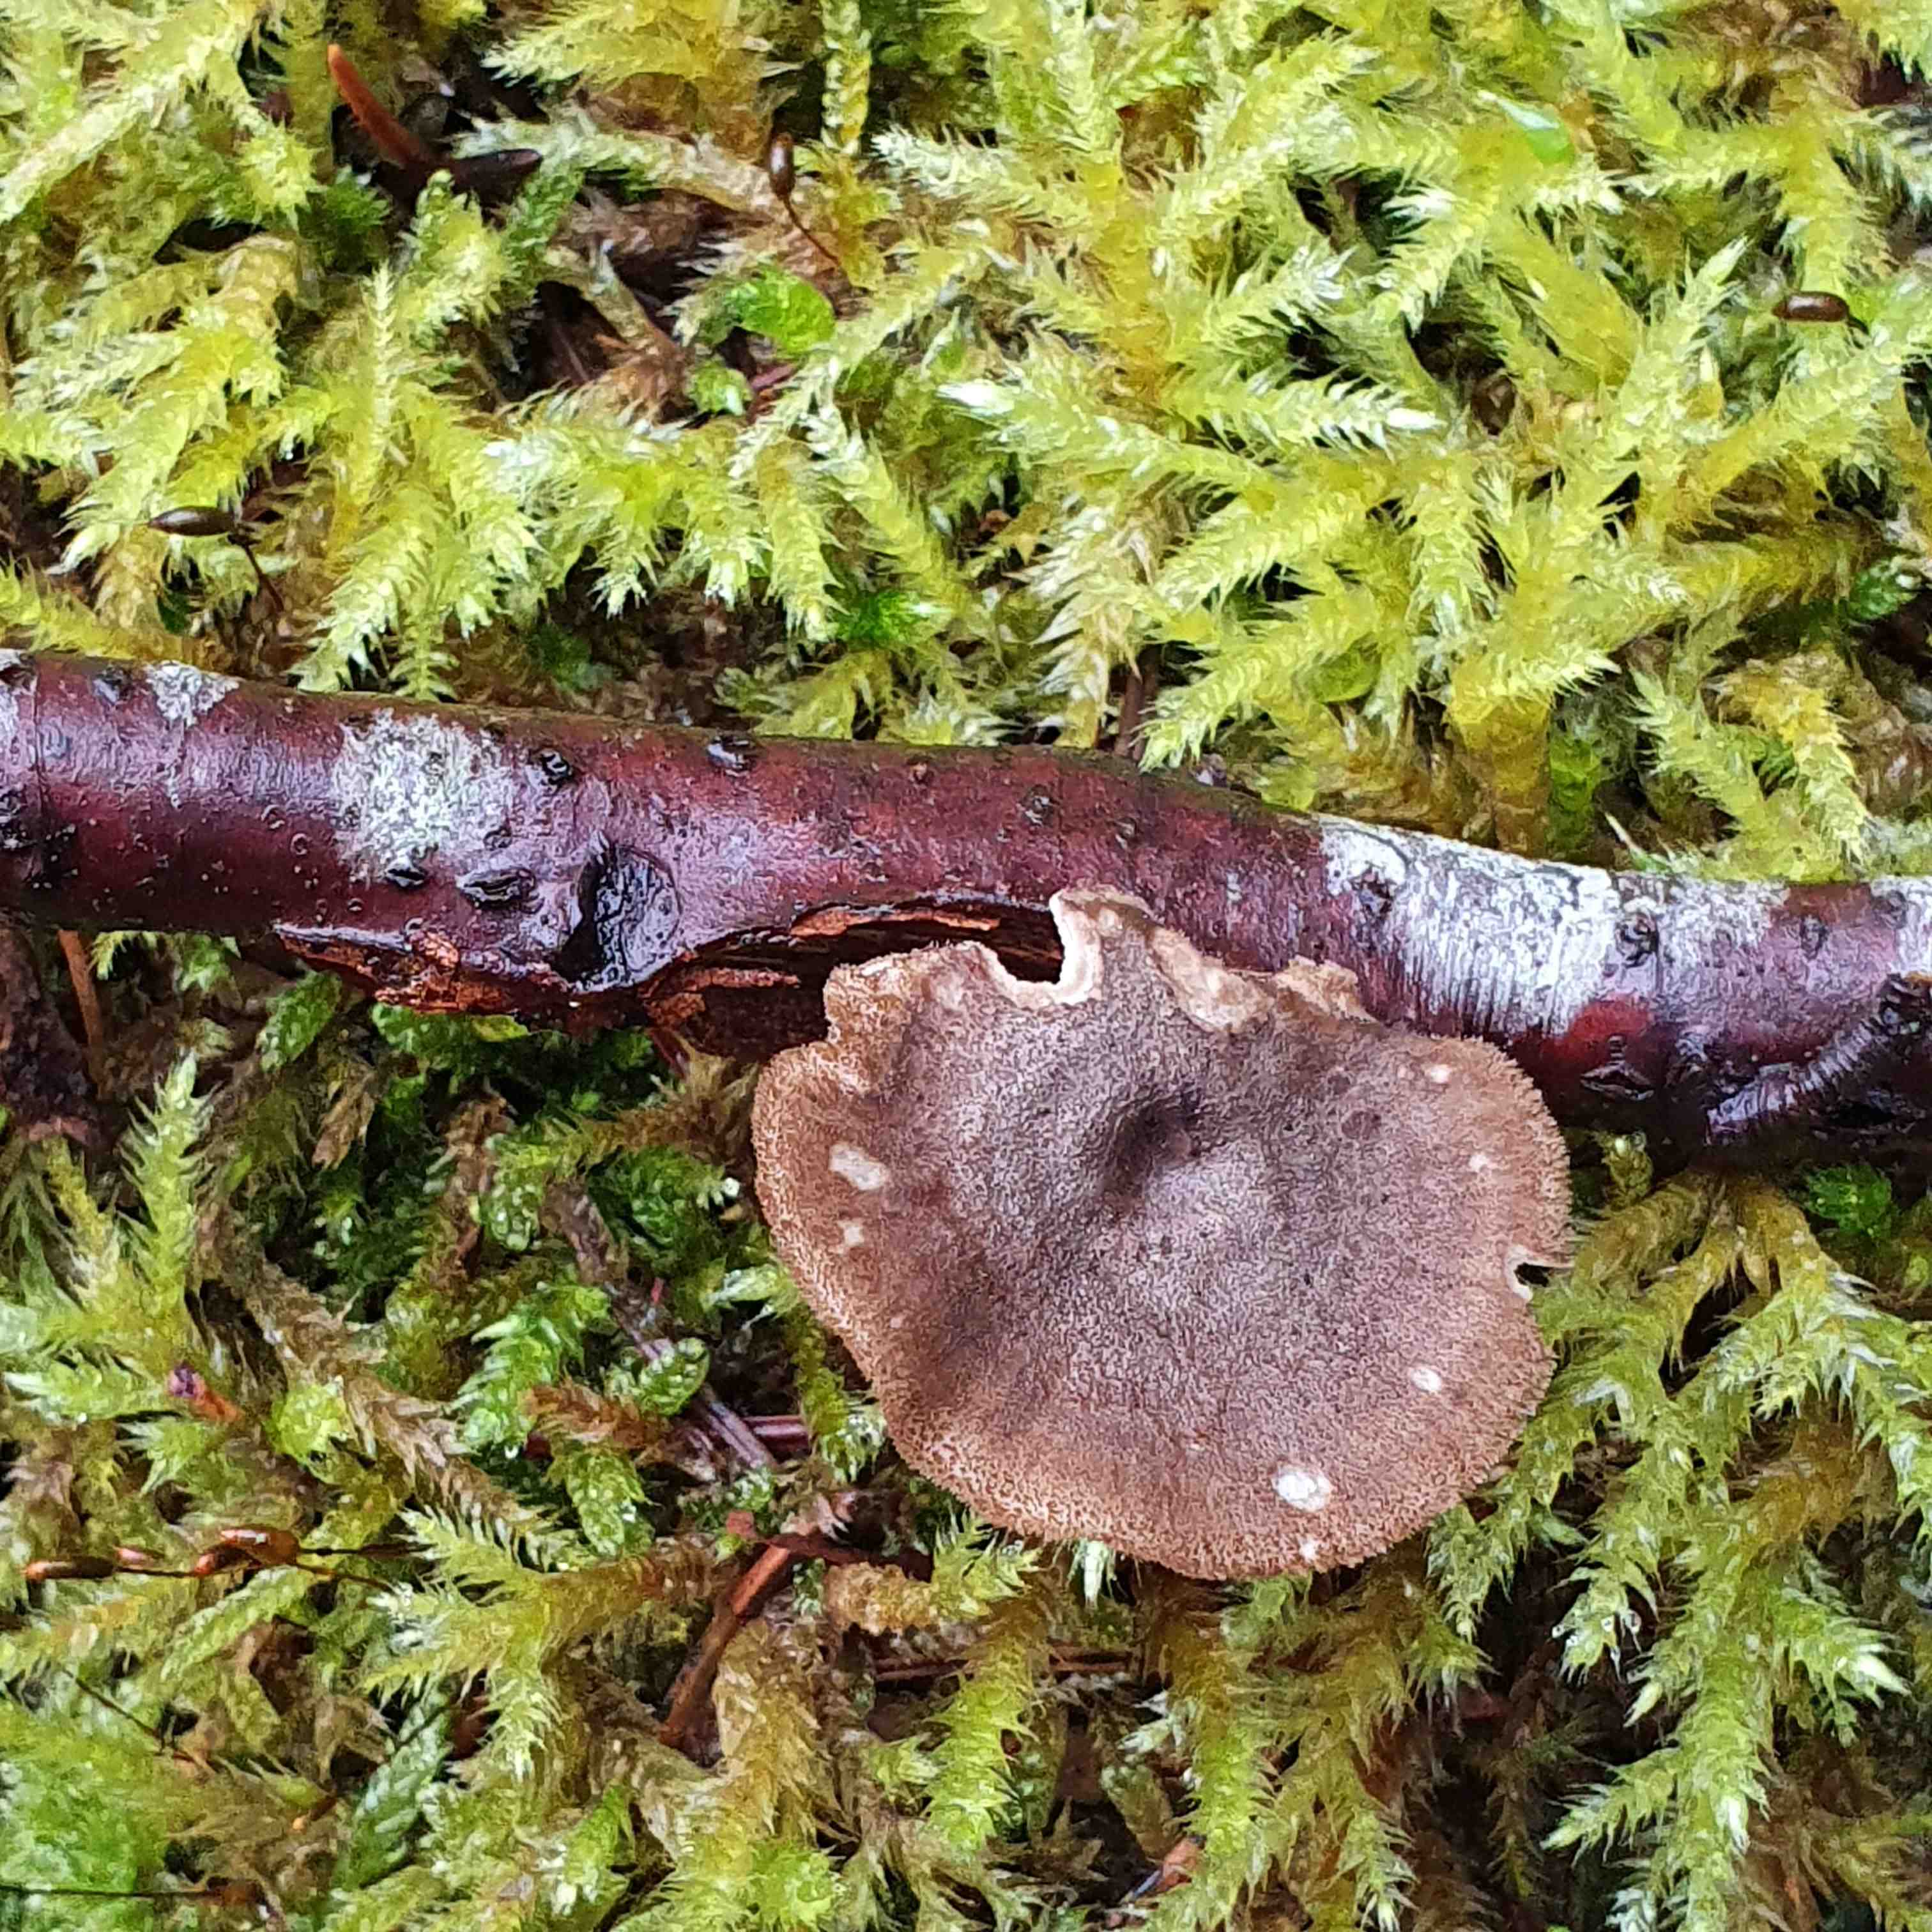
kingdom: Fungi
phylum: Basidiomycota
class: Agaricomycetes
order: Polyporales
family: Polyporaceae
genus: Lentinus
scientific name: Lentinus brumalis
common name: vinter-stilkporesvamp
